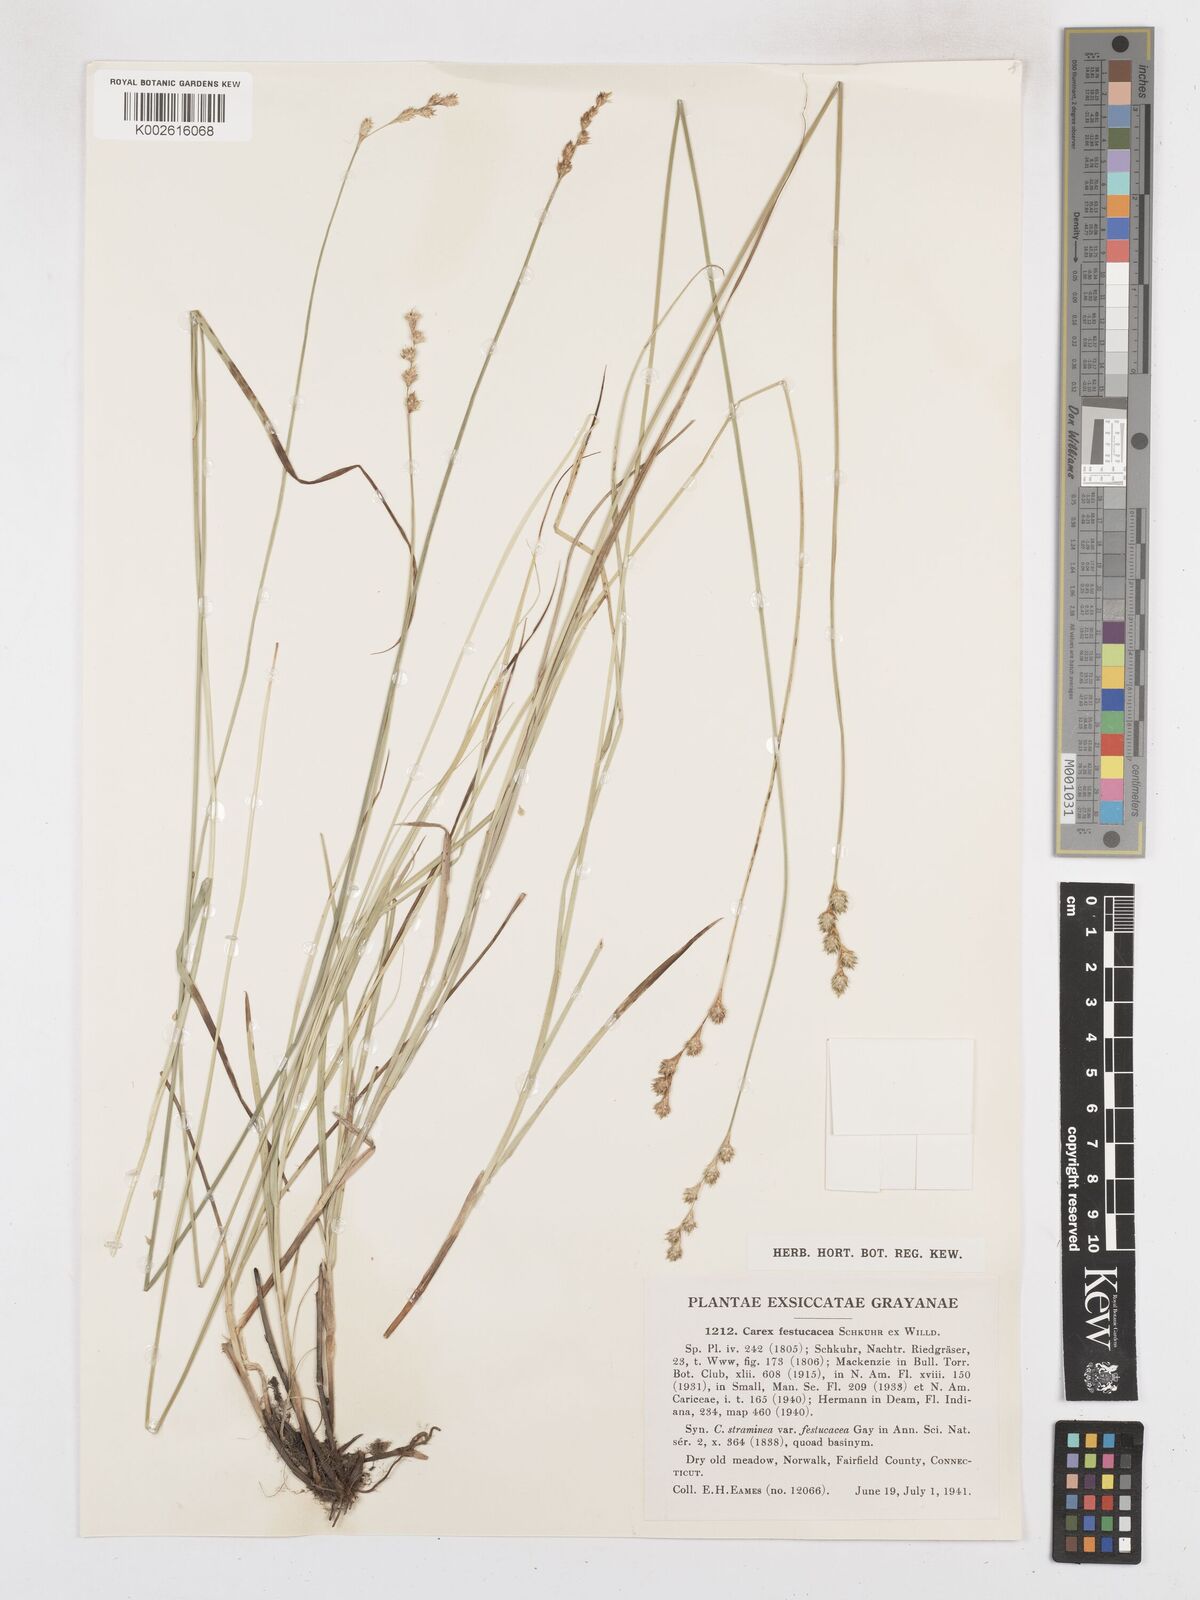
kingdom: Plantae
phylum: Tracheophyta
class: Liliopsida
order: Poales
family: Cyperaceae
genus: Carex
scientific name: Carex festucacea
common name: Fescue oval sedge
